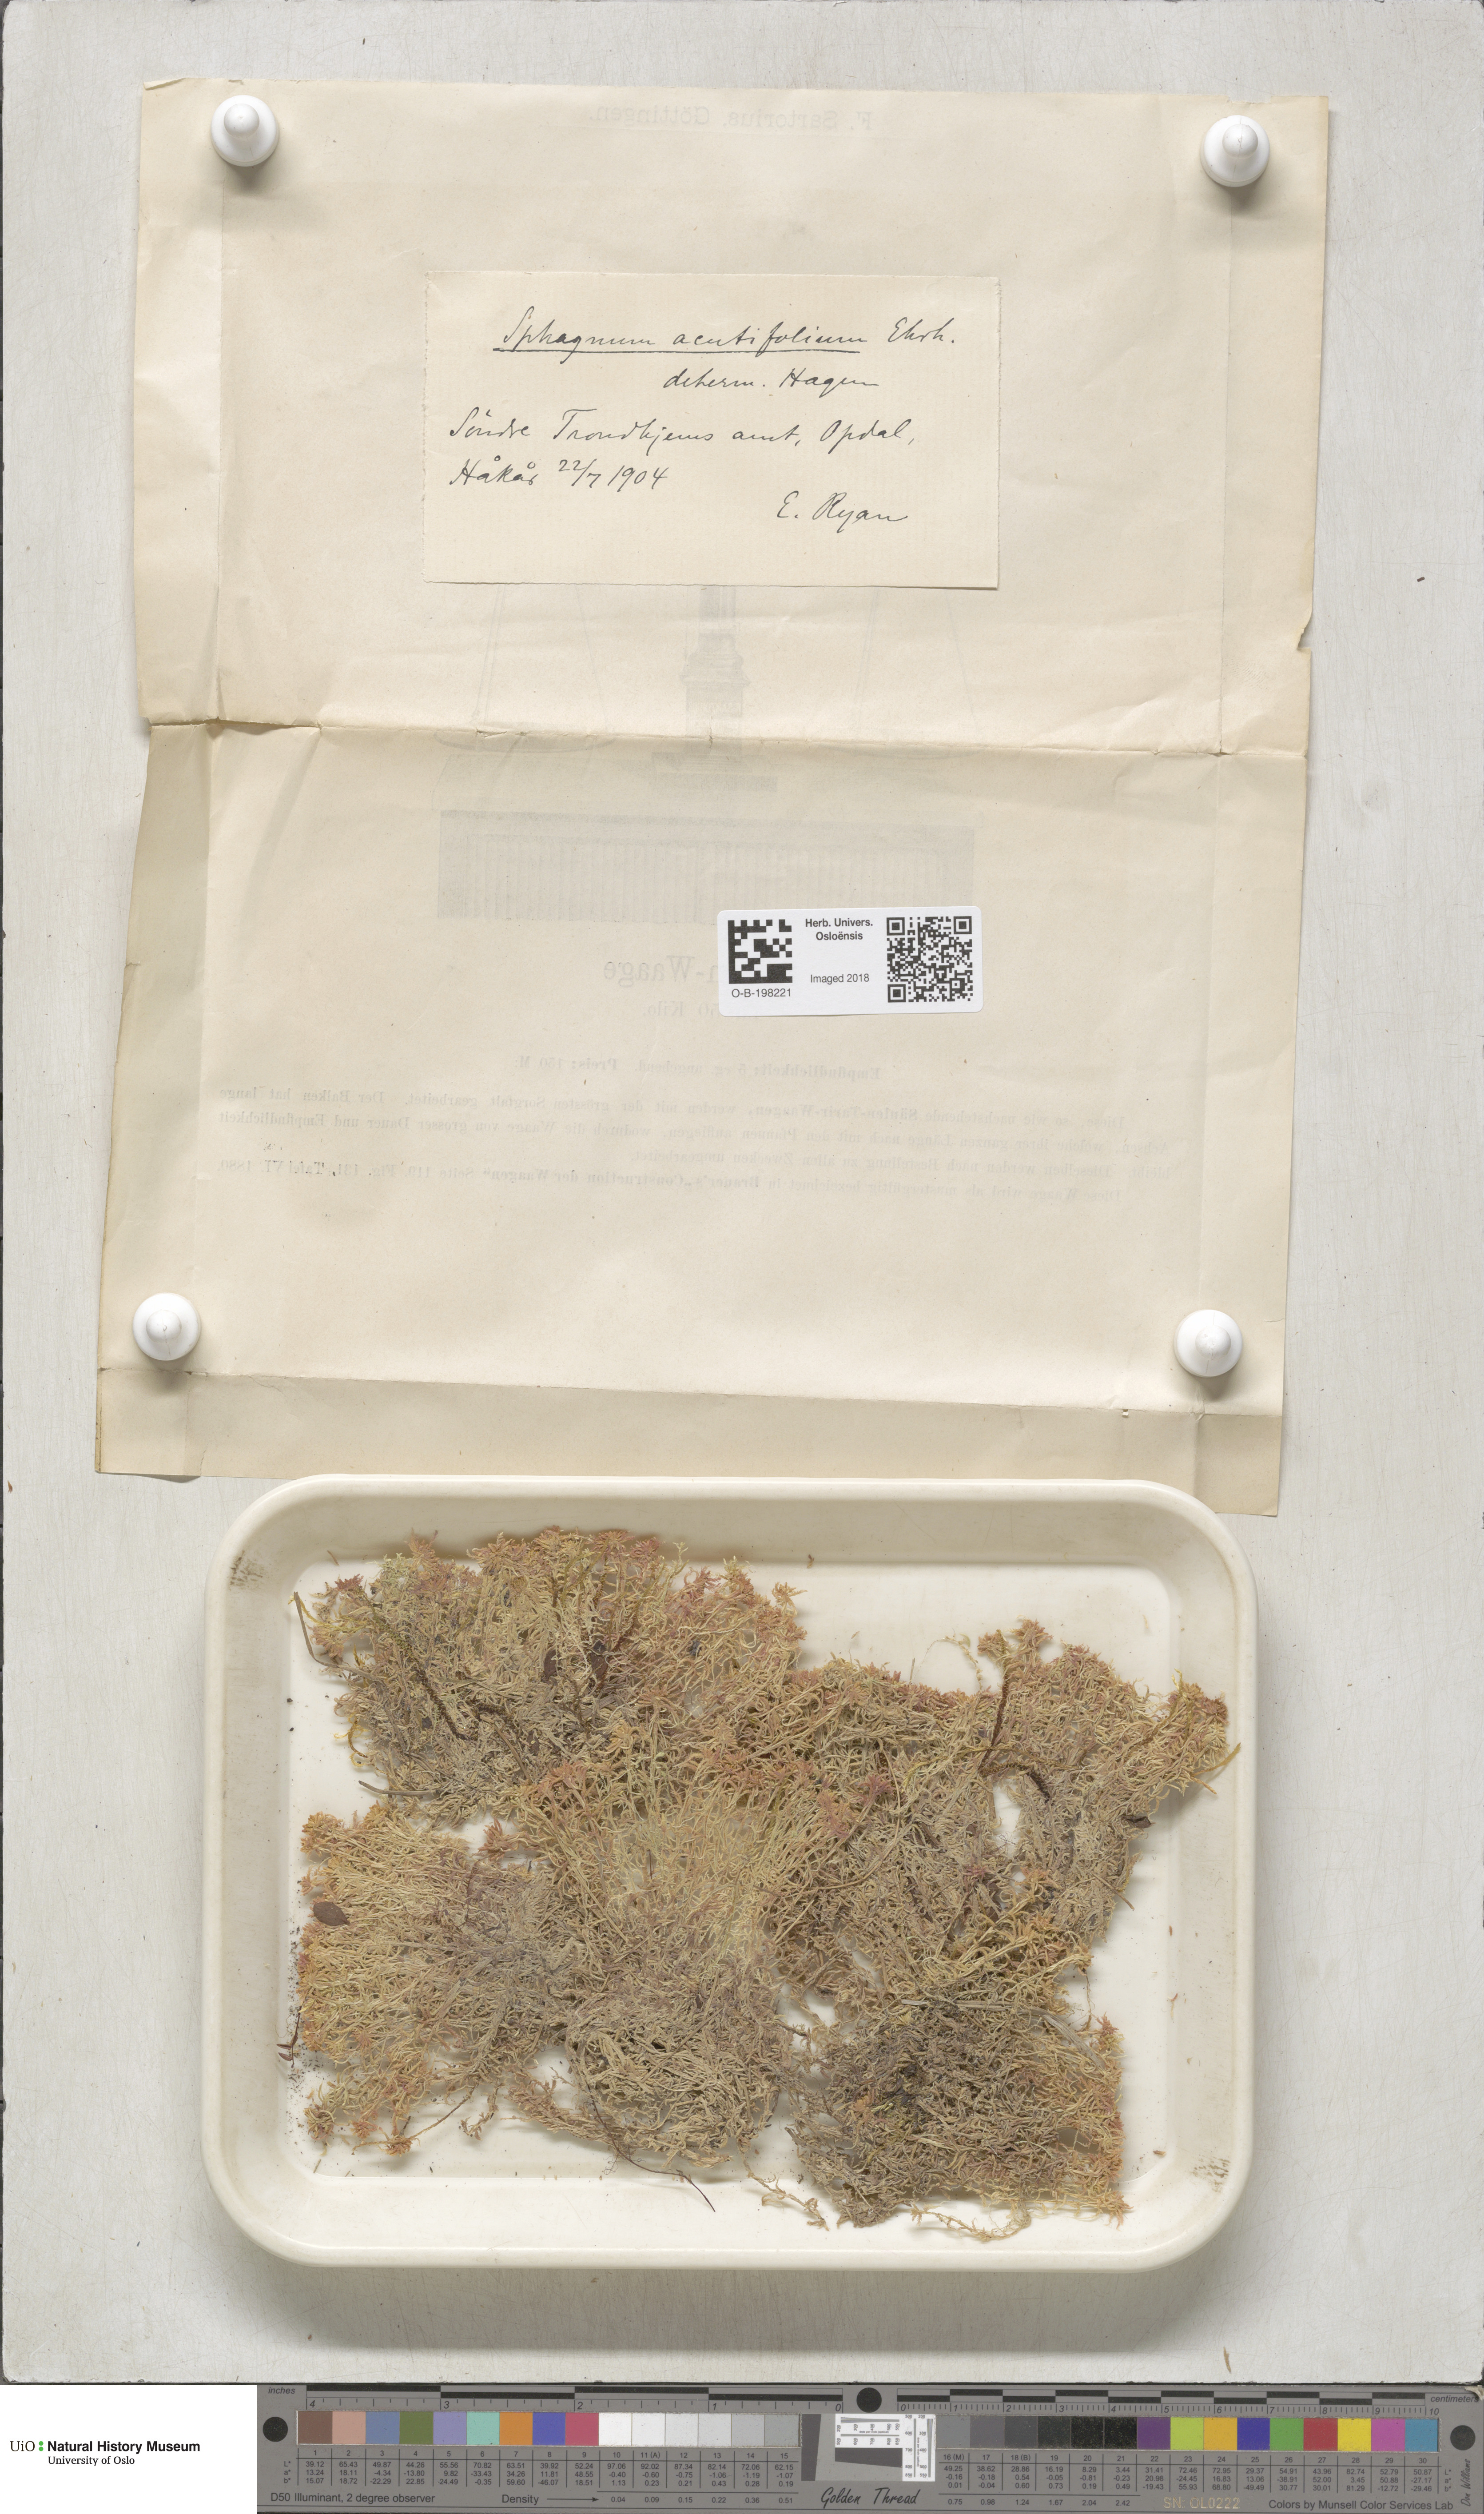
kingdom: Plantae
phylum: Bryophyta
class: Sphagnopsida
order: Sphagnales
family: Sphagnaceae
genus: Sphagnum
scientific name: Sphagnum capillifolium
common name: Small red peat moss
